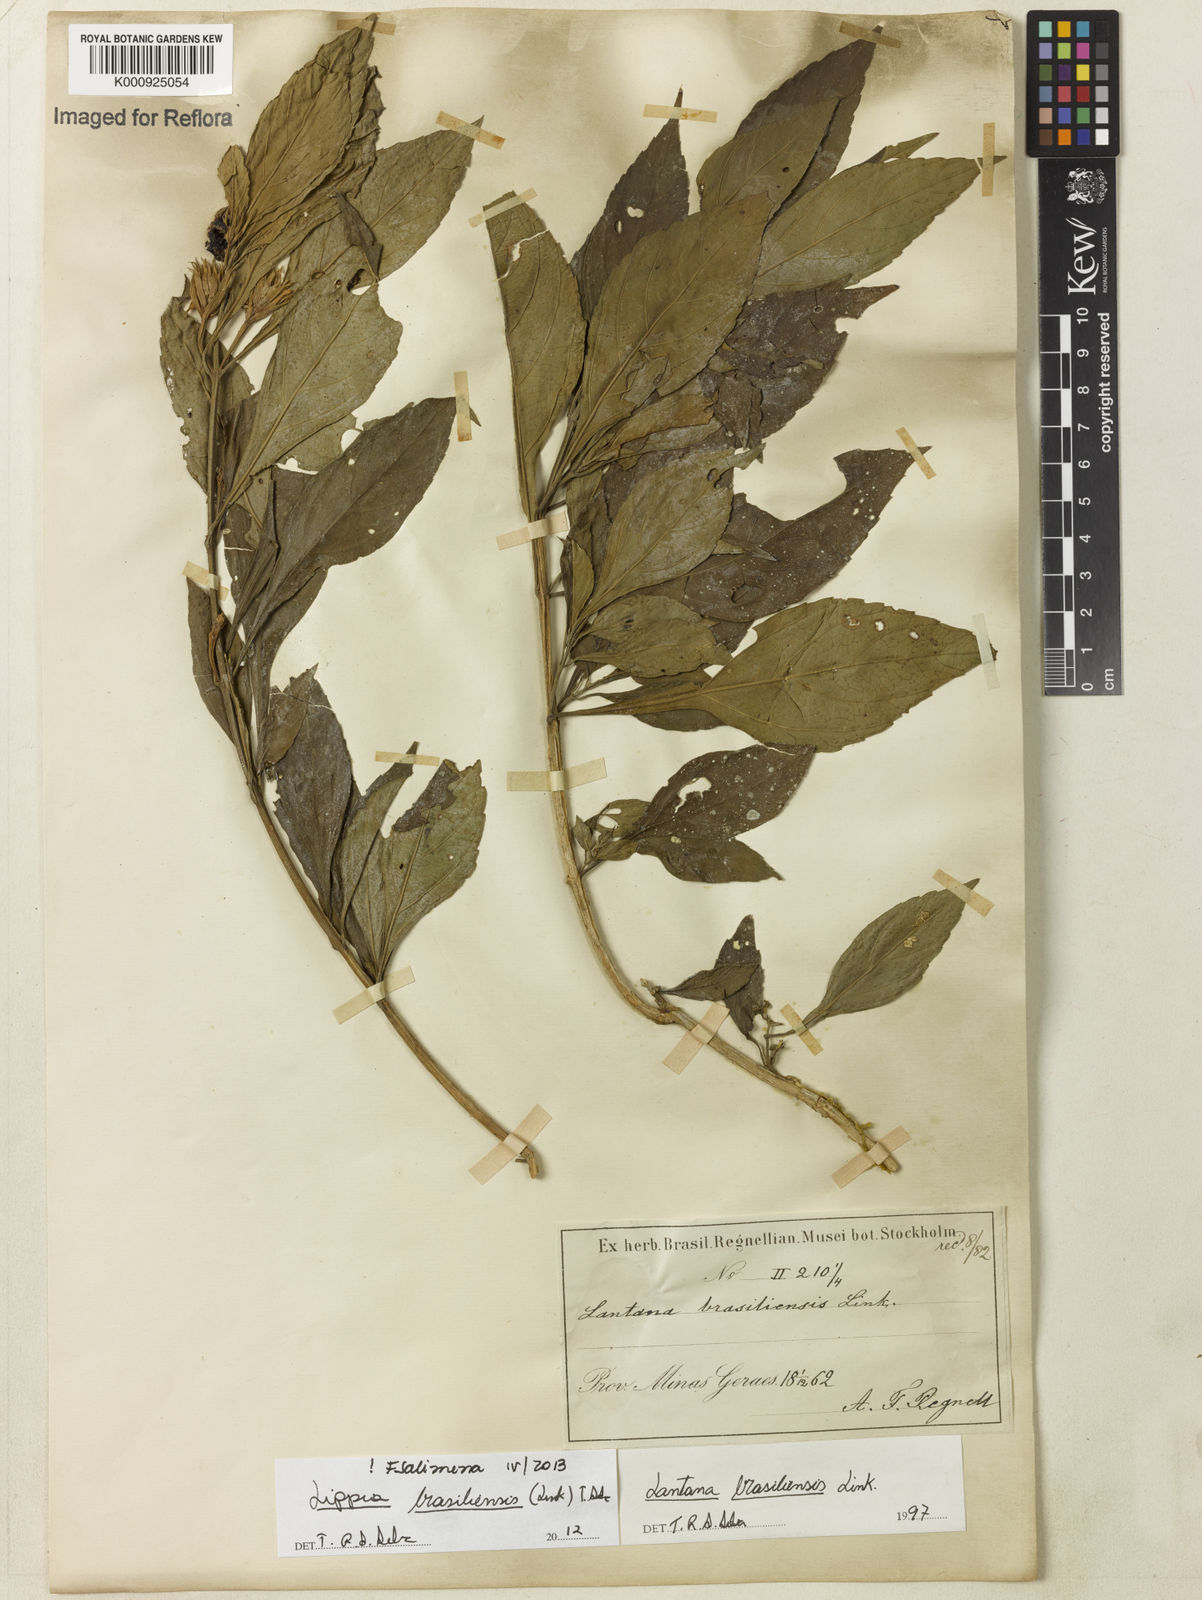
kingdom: Plantae
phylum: Tracheophyta
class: Magnoliopsida
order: Lamiales
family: Verbenaceae
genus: Lippia
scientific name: Lippia brasiliensis
